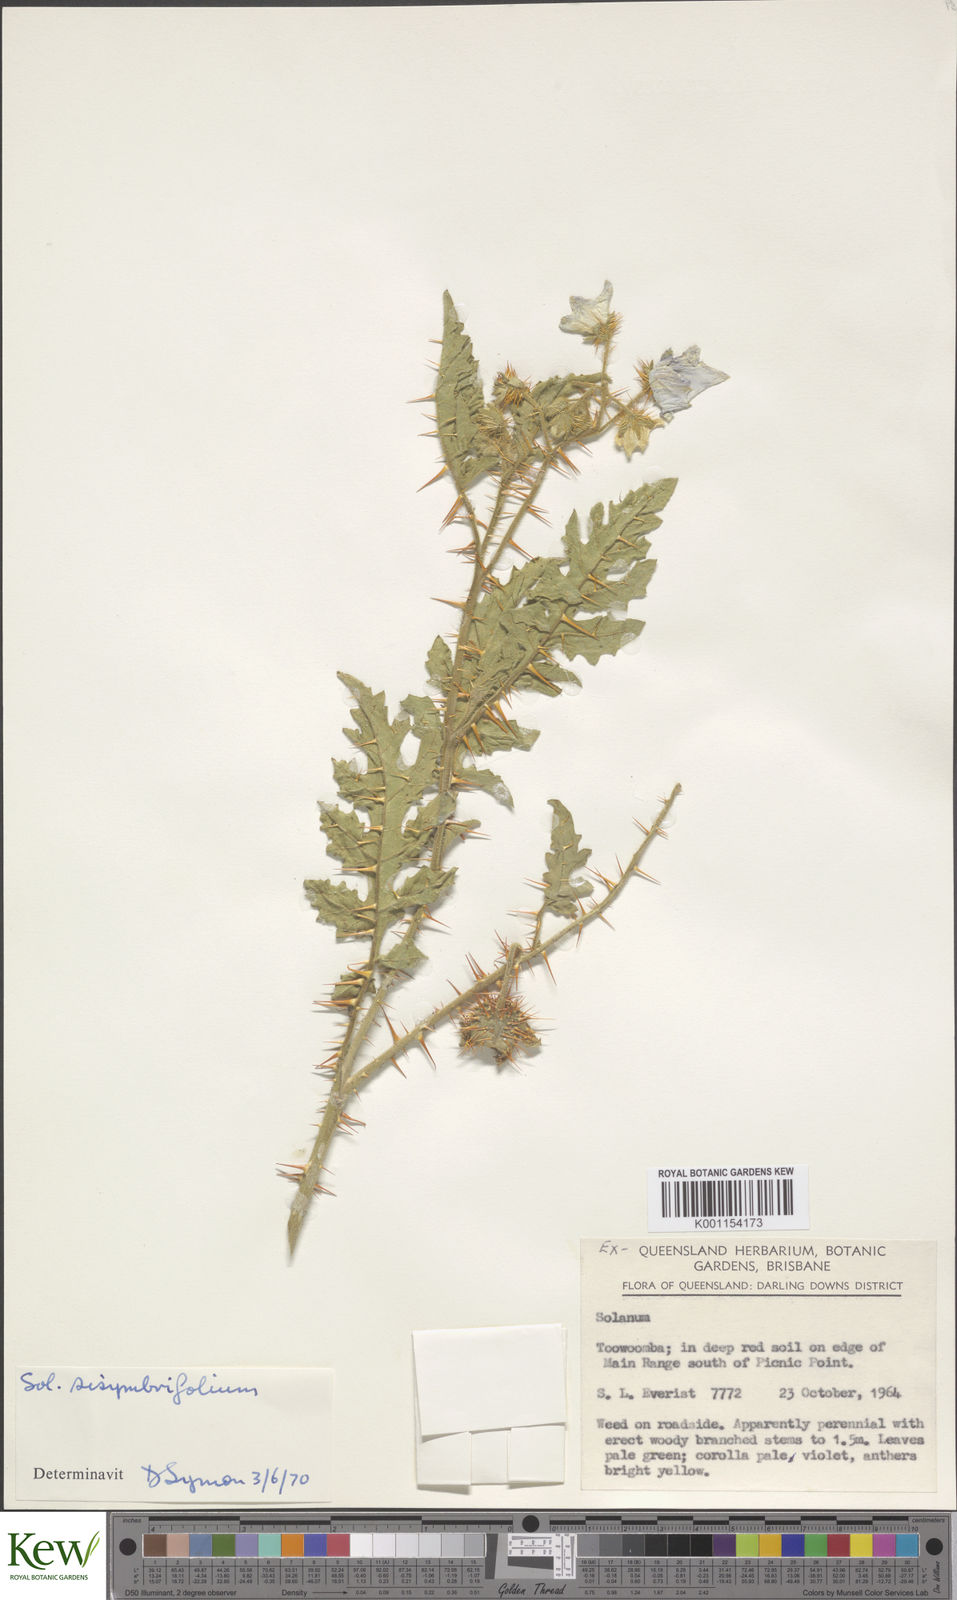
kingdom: Plantae
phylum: Tracheophyta
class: Magnoliopsida
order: Solanales
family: Solanaceae
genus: Solanum
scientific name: Solanum sisymbriifolium
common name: Red buffalo-bur
